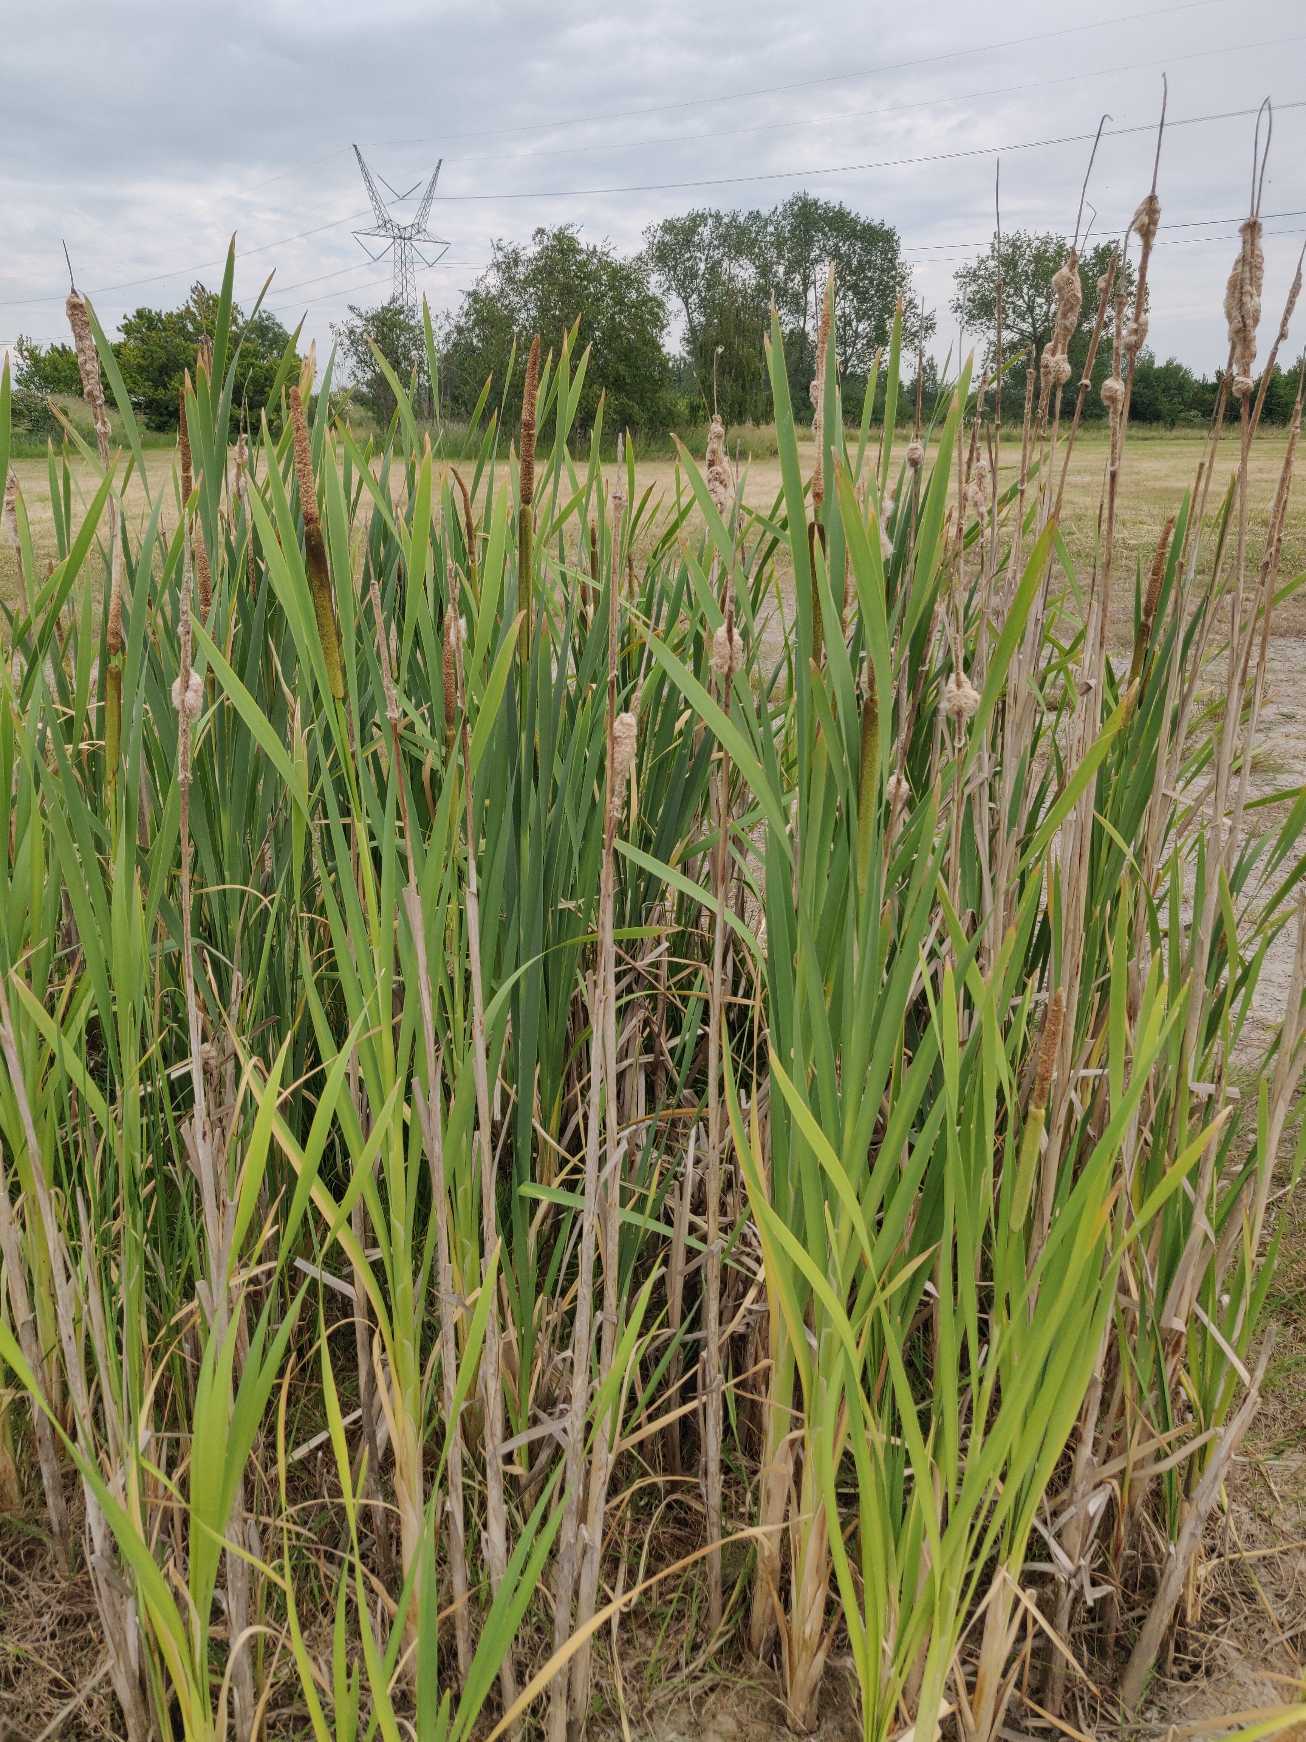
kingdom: Plantae
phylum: Tracheophyta
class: Liliopsida
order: Poales
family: Typhaceae
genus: Typha
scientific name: Typha latifolia
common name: Bredbladet dunhammer
